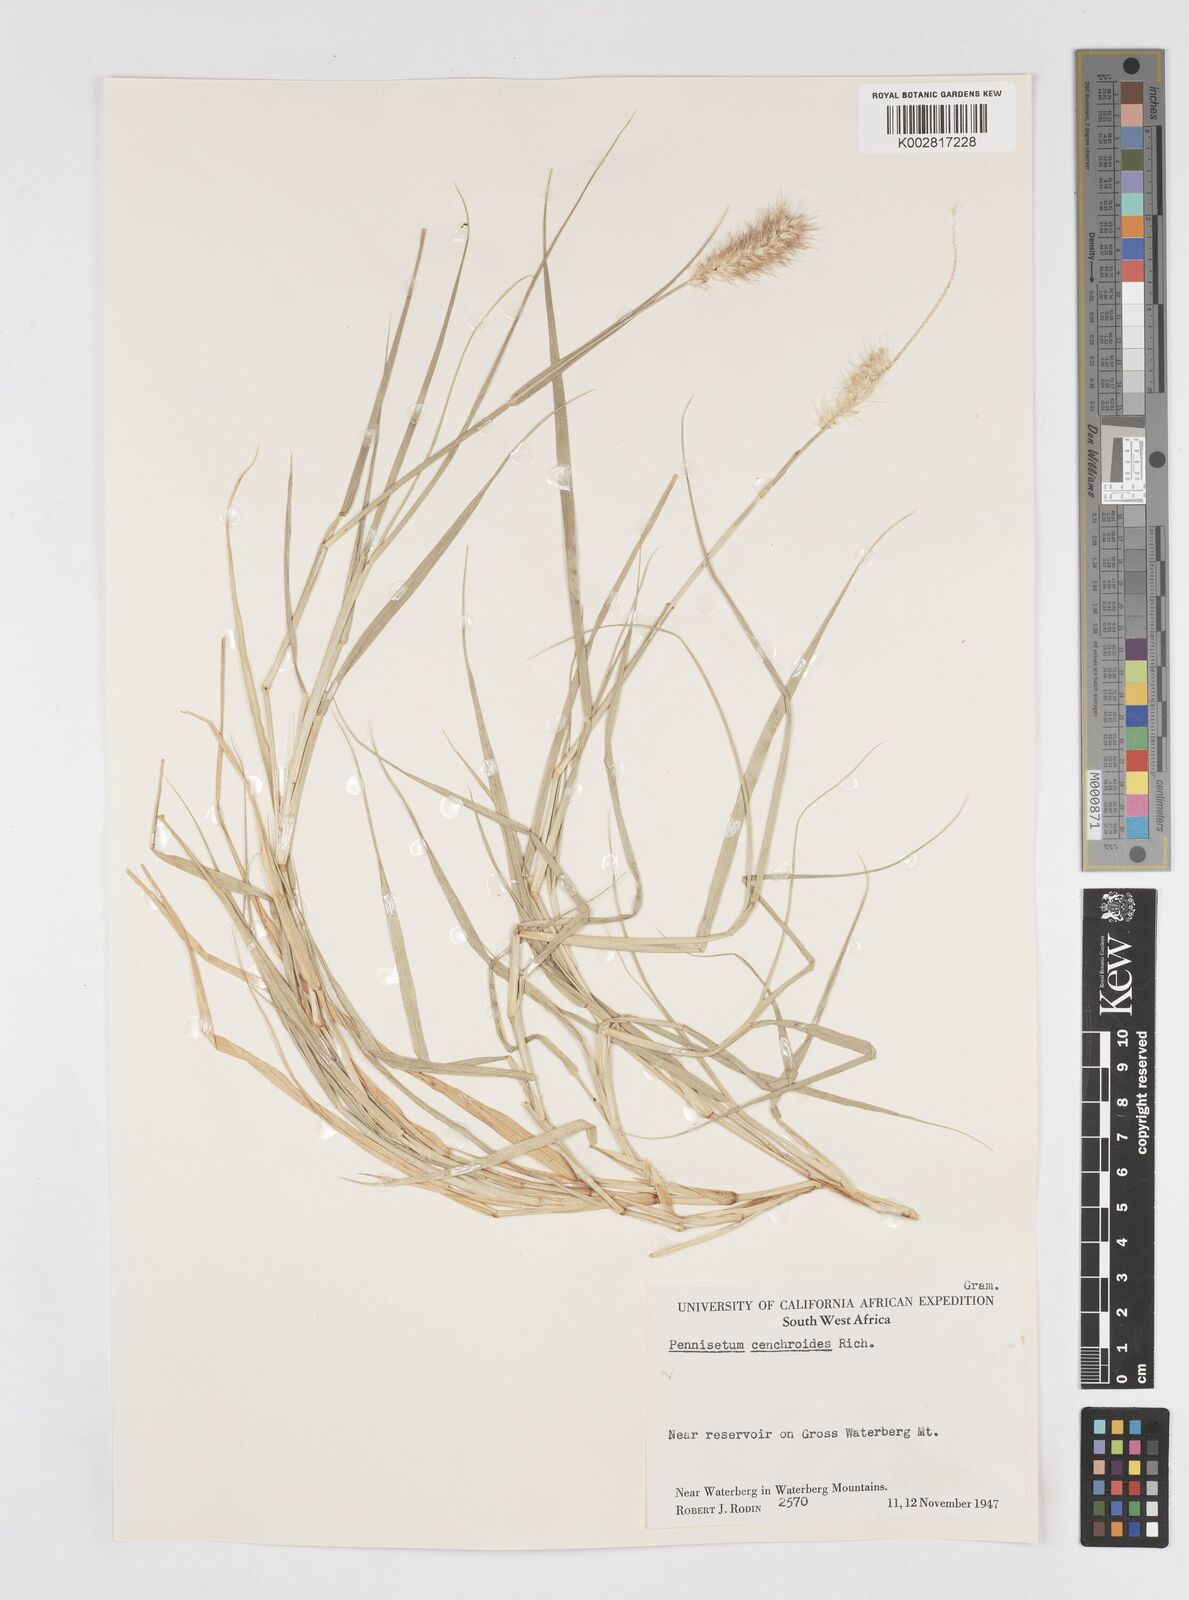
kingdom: Plantae
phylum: Tracheophyta
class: Liliopsida
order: Poales
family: Poaceae
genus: Cenchrus
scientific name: Cenchrus ciliaris
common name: Buffelgrass
